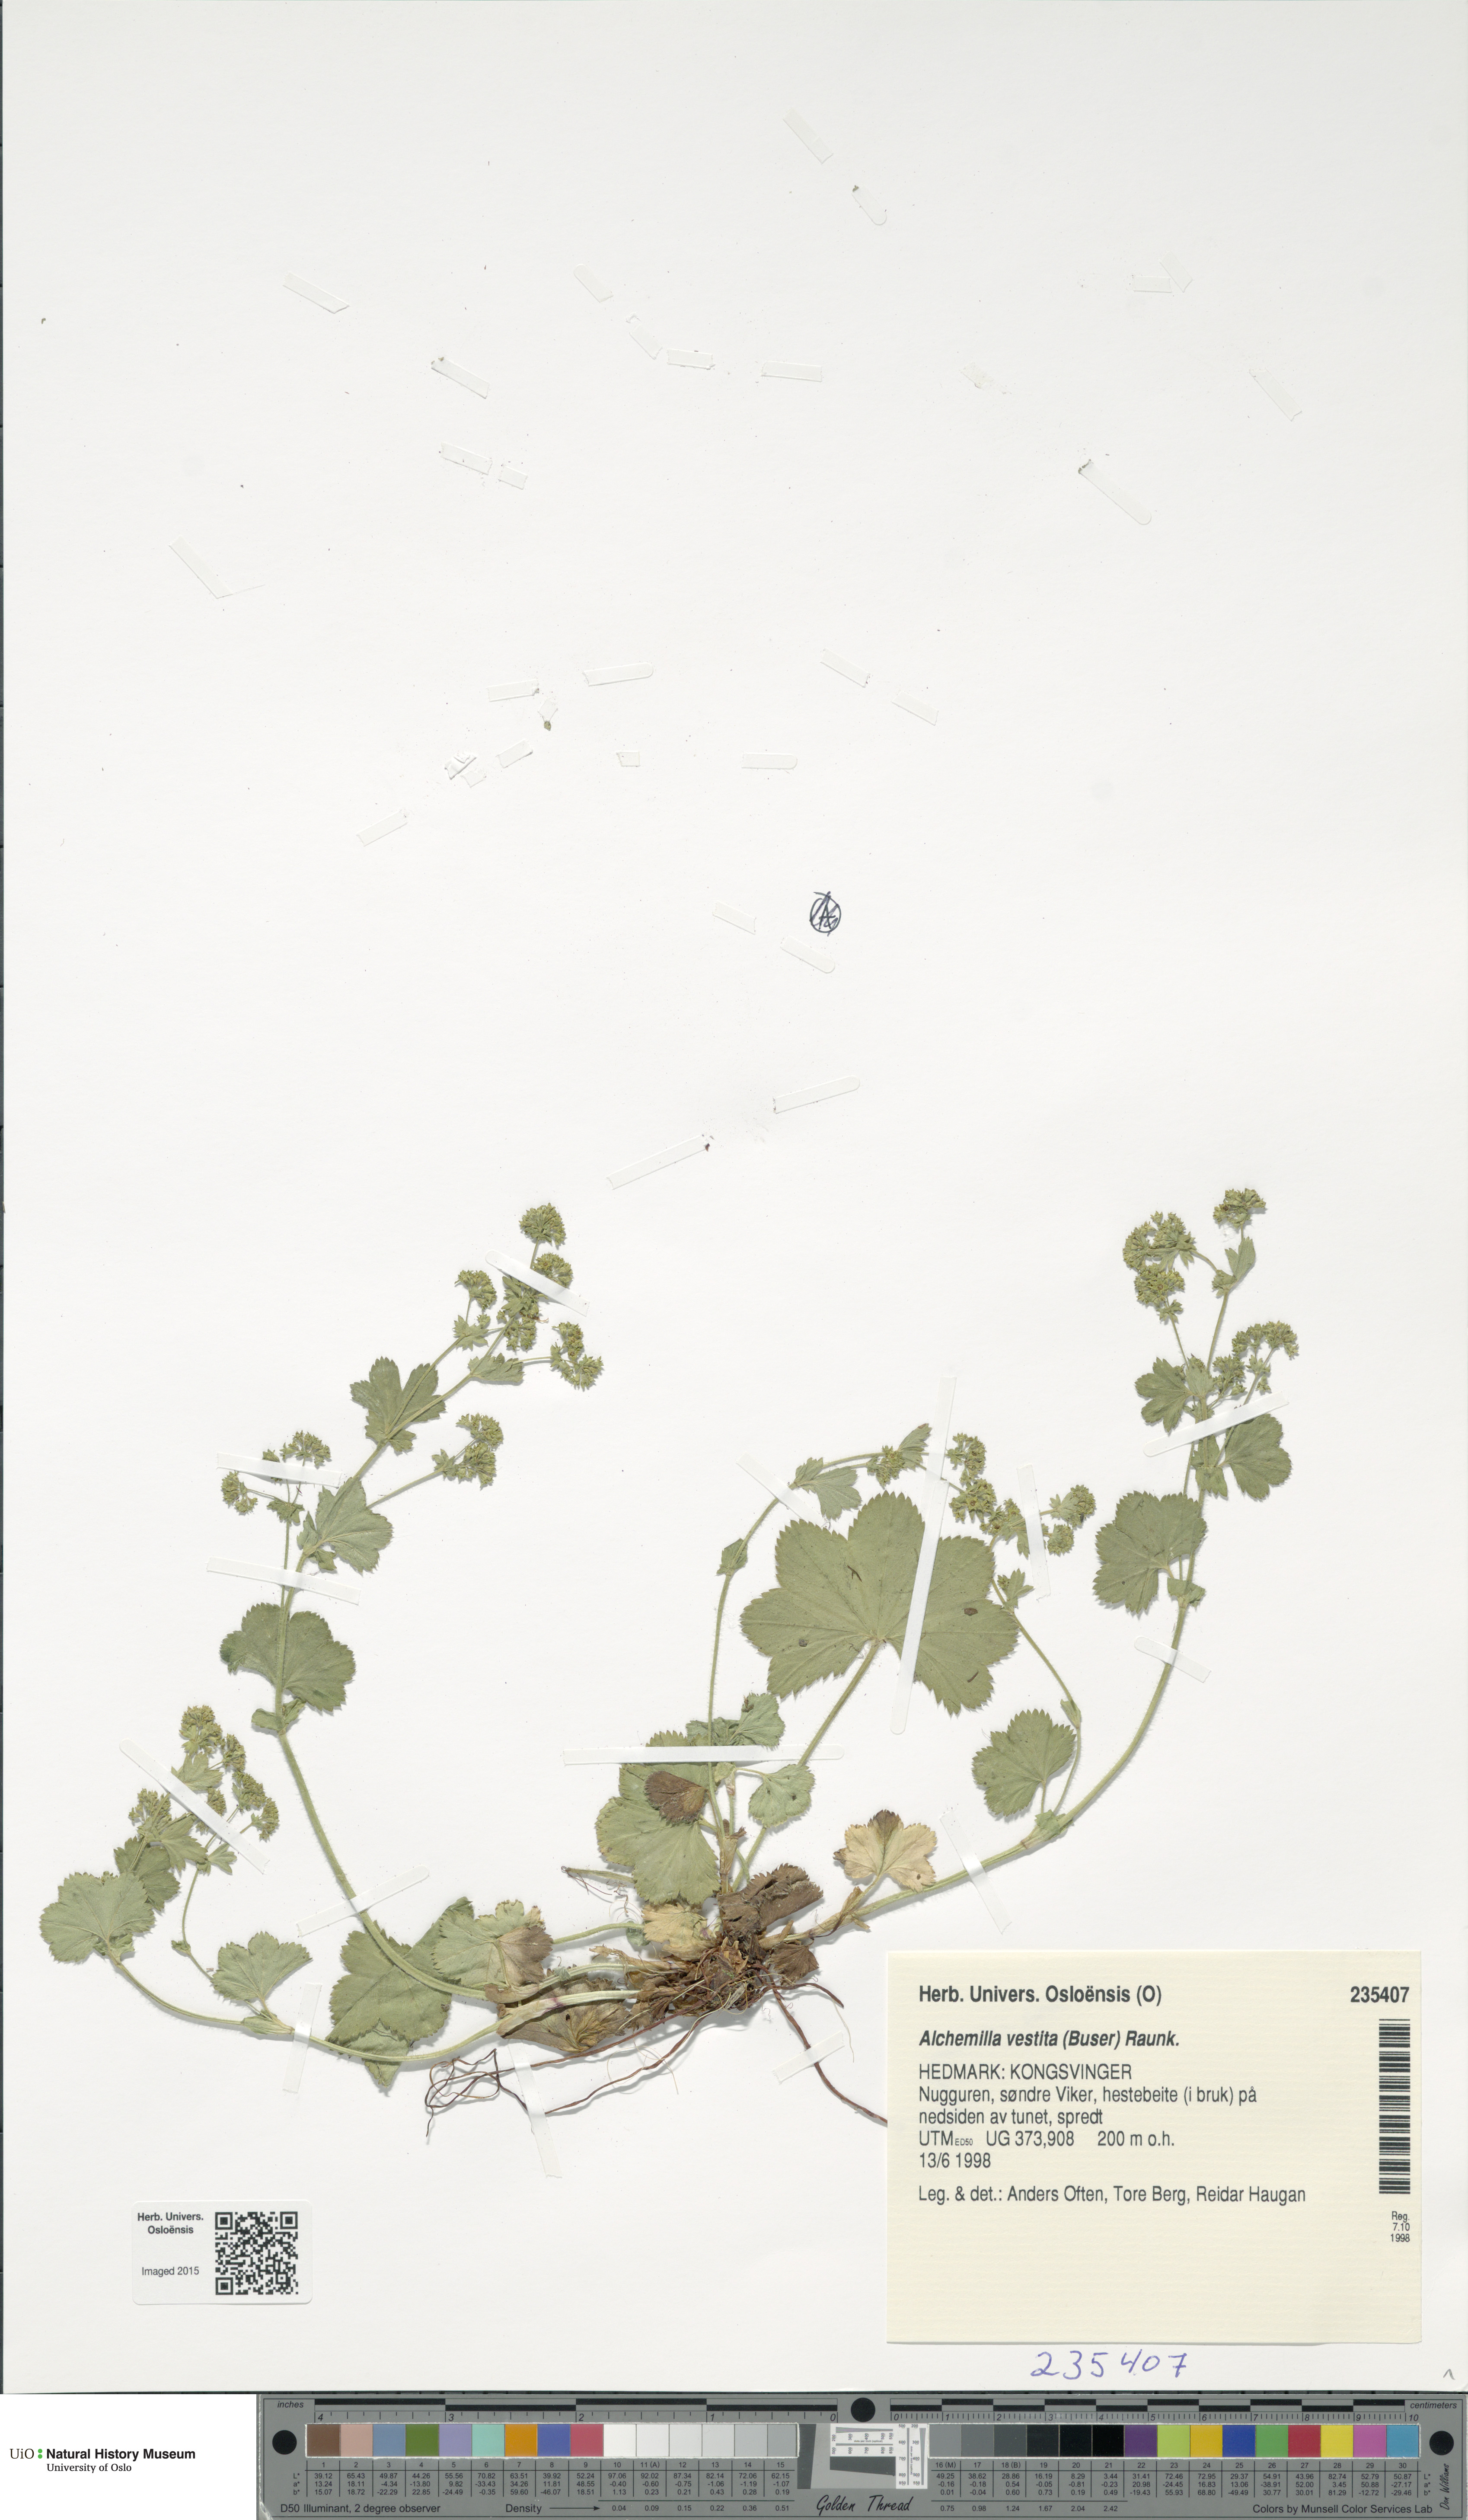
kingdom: Plantae
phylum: Tracheophyta
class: Magnoliopsida
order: Rosales
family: Rosaceae
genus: Alchemilla
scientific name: Alchemilla filicaulis
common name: Hairy lady's-mantle
